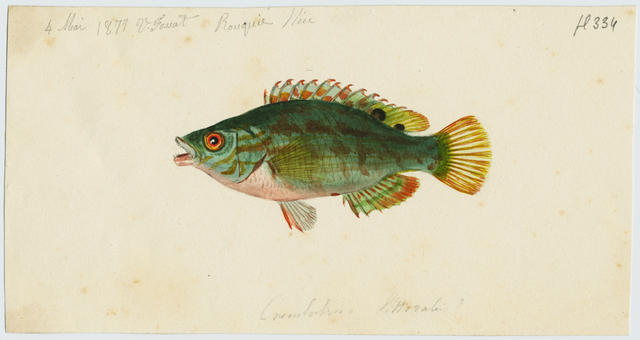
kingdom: Animalia
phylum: Chordata
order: Perciformes
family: Labridae
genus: Symphodus
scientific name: Symphodus roissali
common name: Five-spotted wrasse
